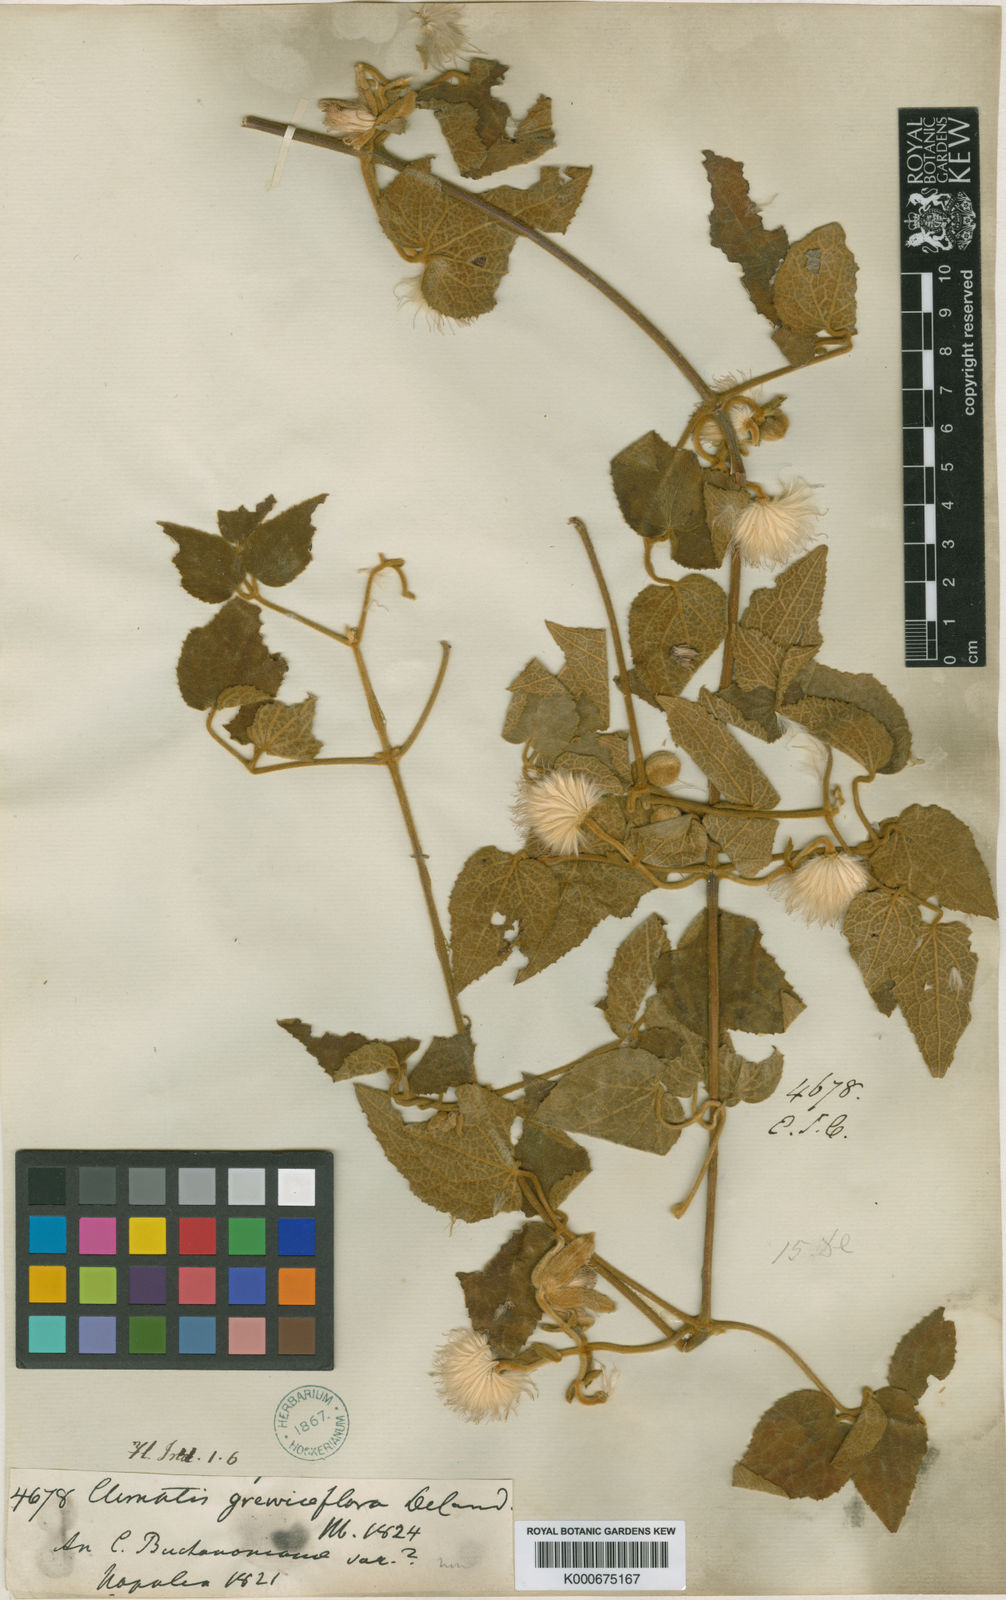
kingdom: Plantae
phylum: Tracheophyta
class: Magnoliopsida
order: Ranunculales
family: Ranunculaceae
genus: Clematis
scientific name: Clematis grewiiflora
